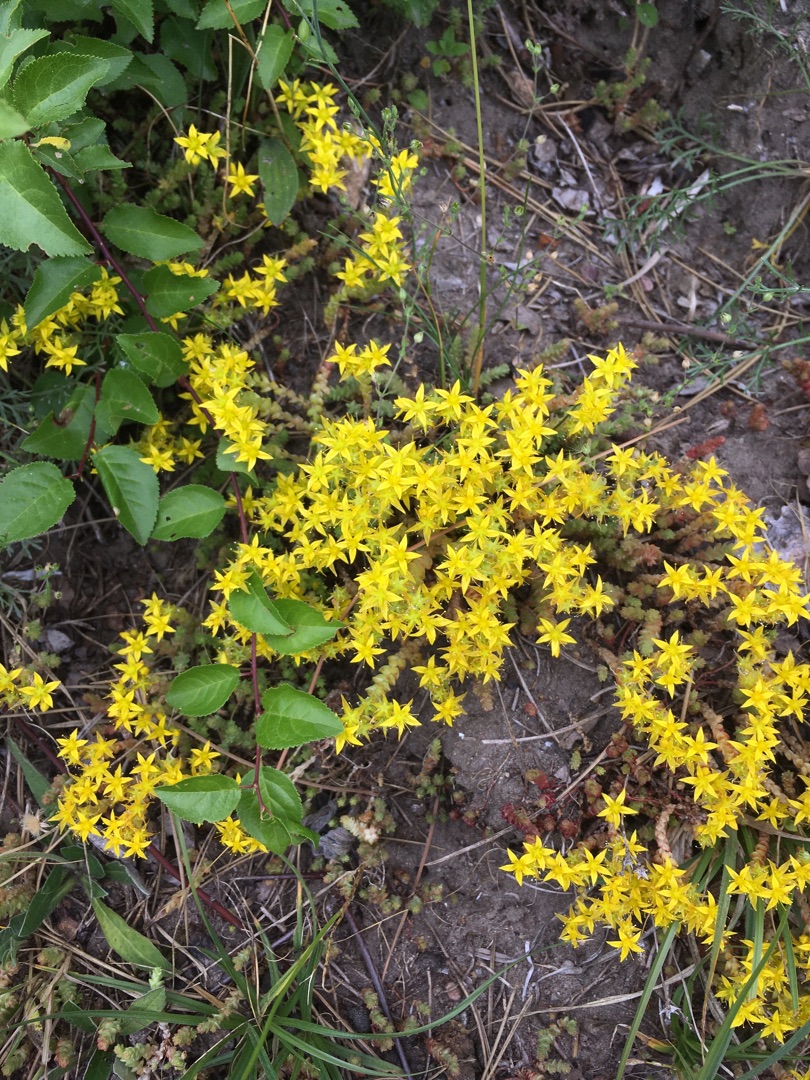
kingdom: Plantae
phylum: Tracheophyta
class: Magnoliopsida
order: Saxifragales
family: Crassulaceae
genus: Sedum
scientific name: Sedum acre
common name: Bidende stenurt
